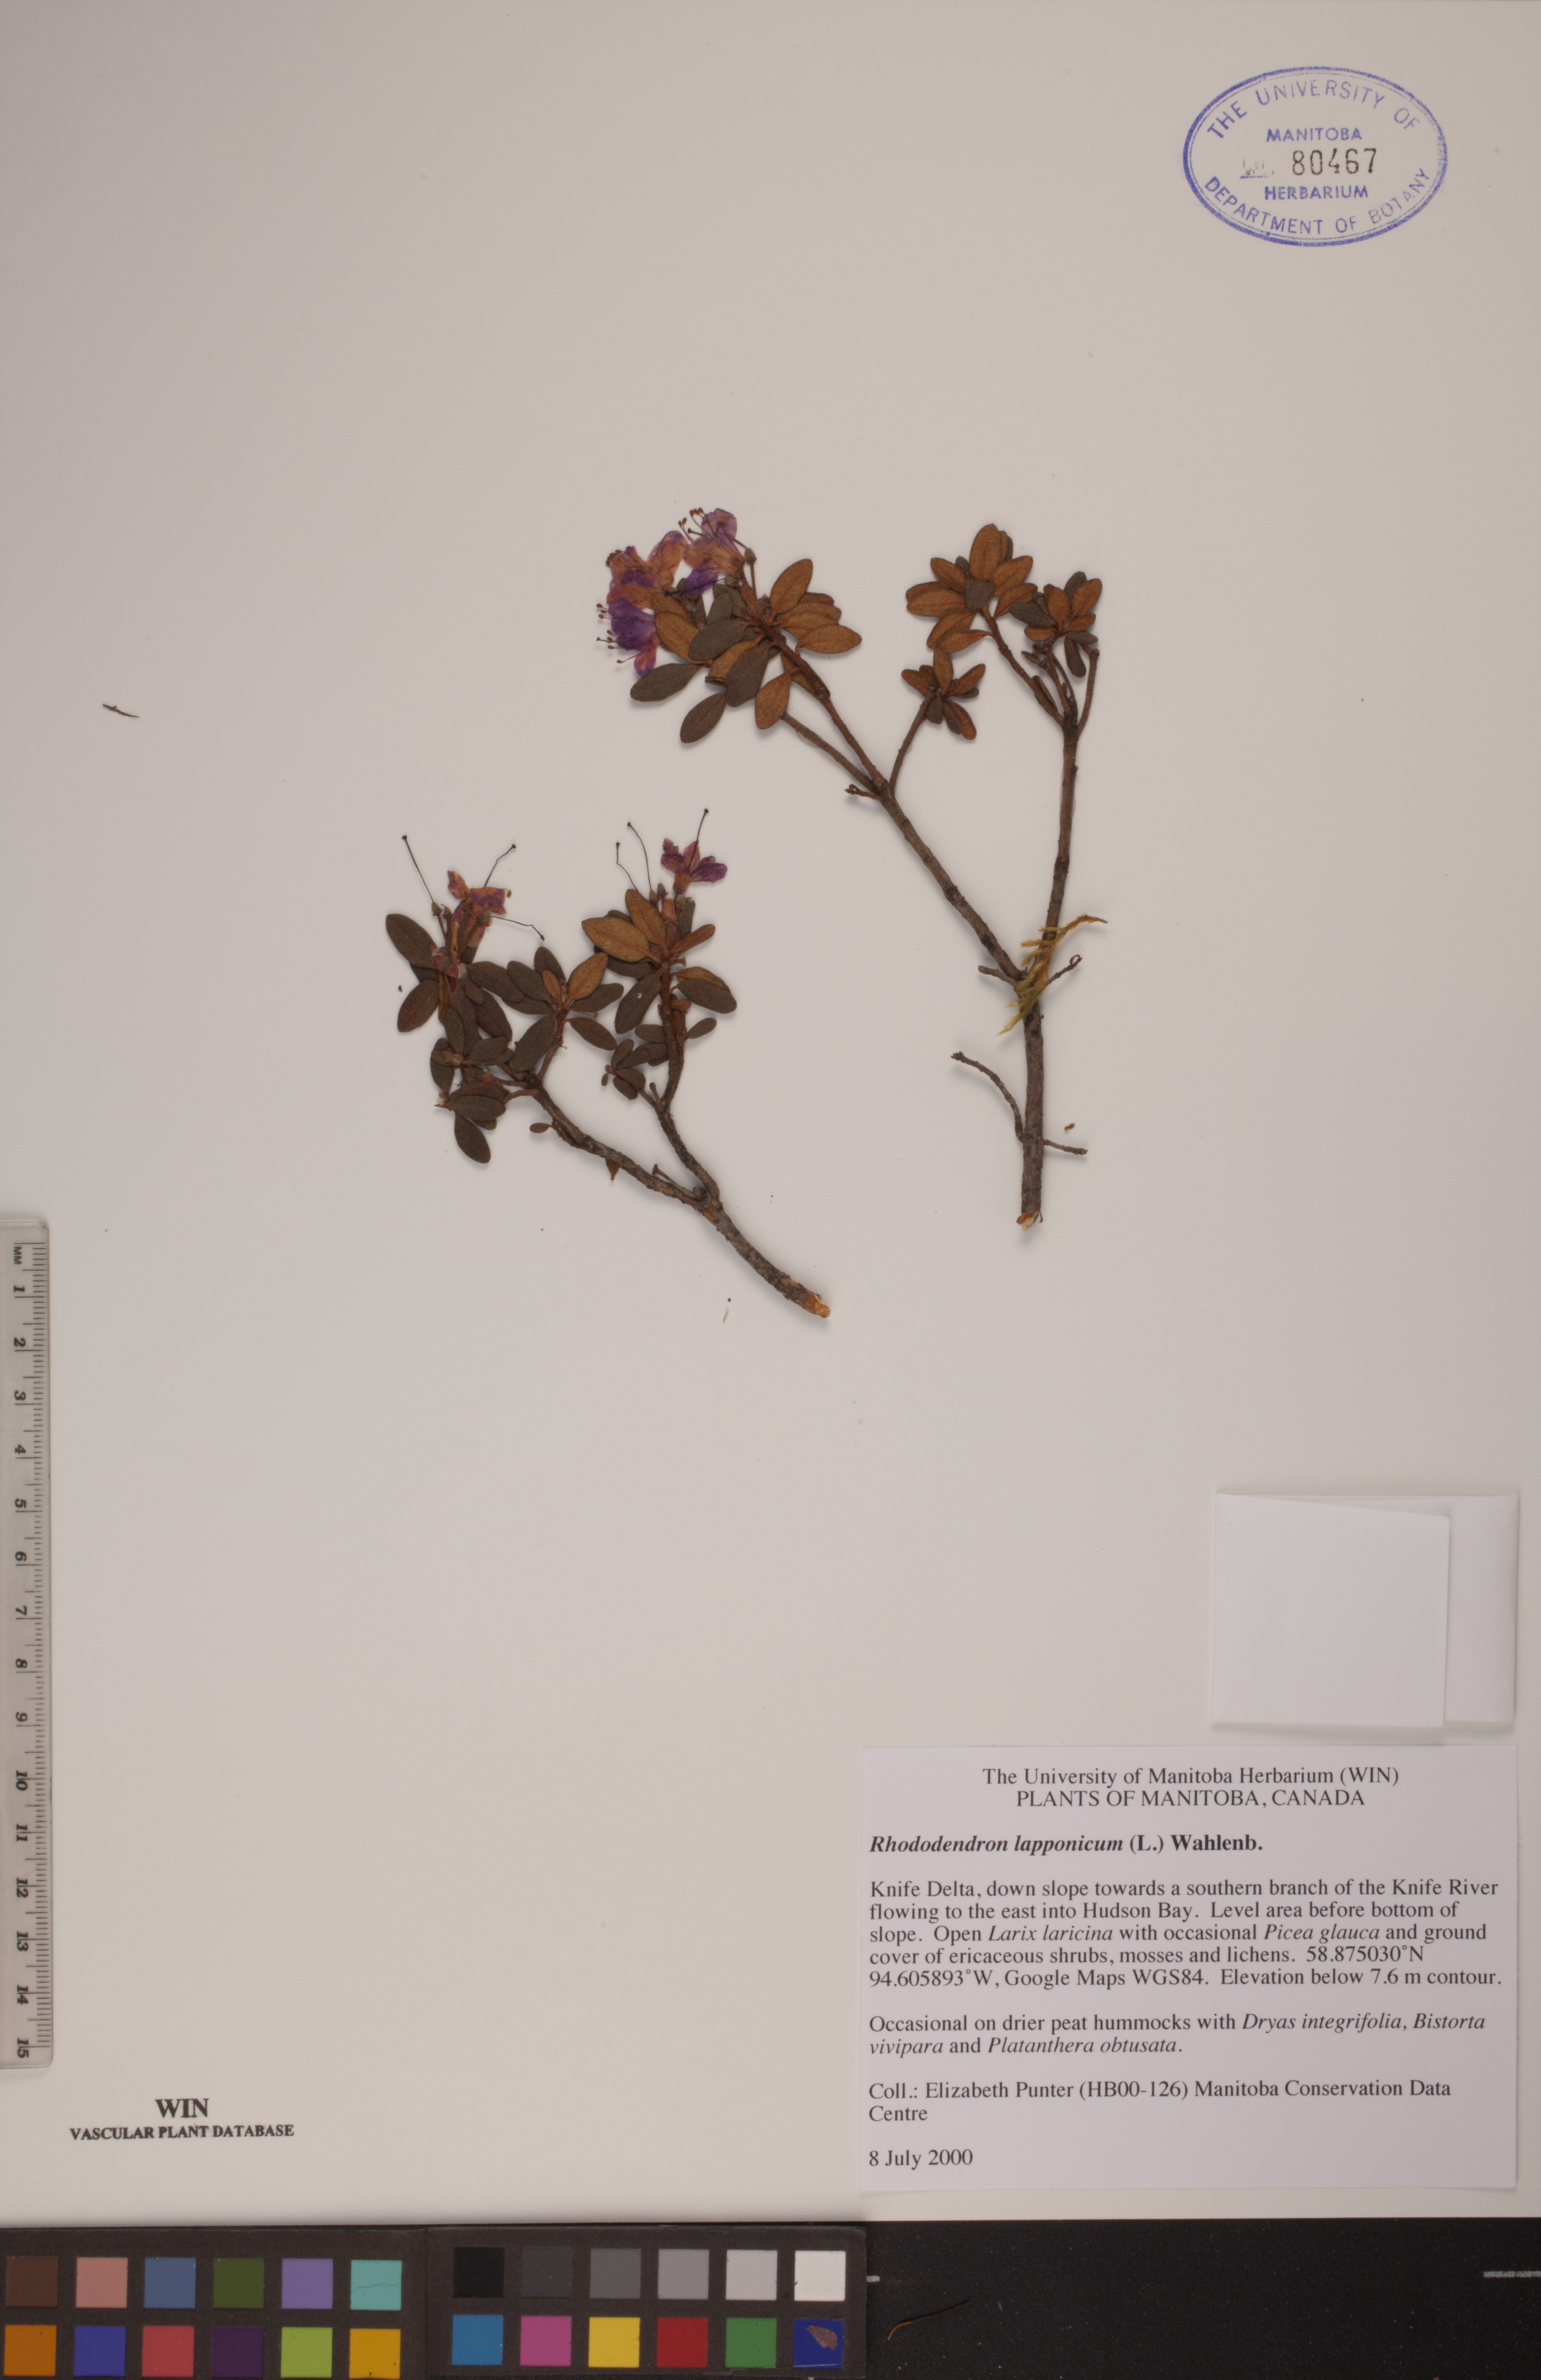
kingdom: Plantae
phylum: Tracheophyta
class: Magnoliopsida
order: Ericales
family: Ericaceae
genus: Rhododendron
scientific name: Rhododendron lapponicum
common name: Lapland rhododendron
